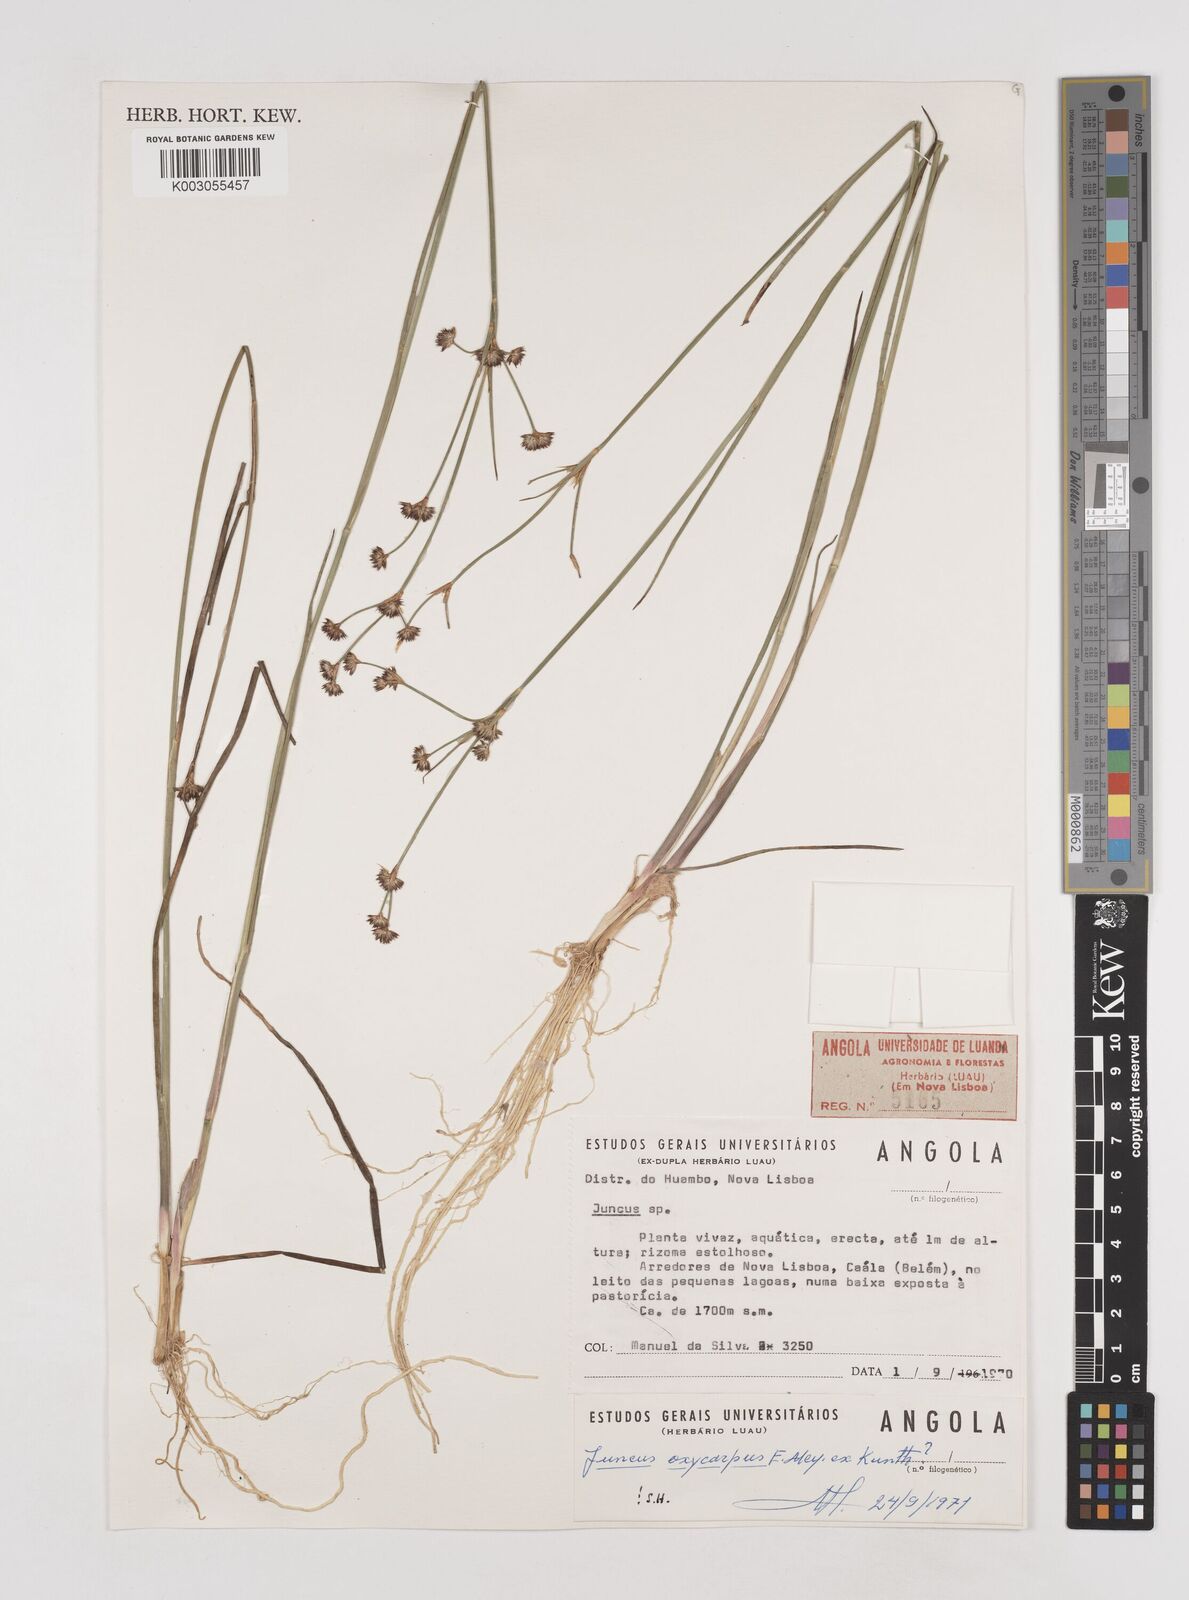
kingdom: Plantae
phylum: Tracheophyta
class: Liliopsida
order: Poales
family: Juncaceae
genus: Juncus
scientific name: Juncus oxycarpus
